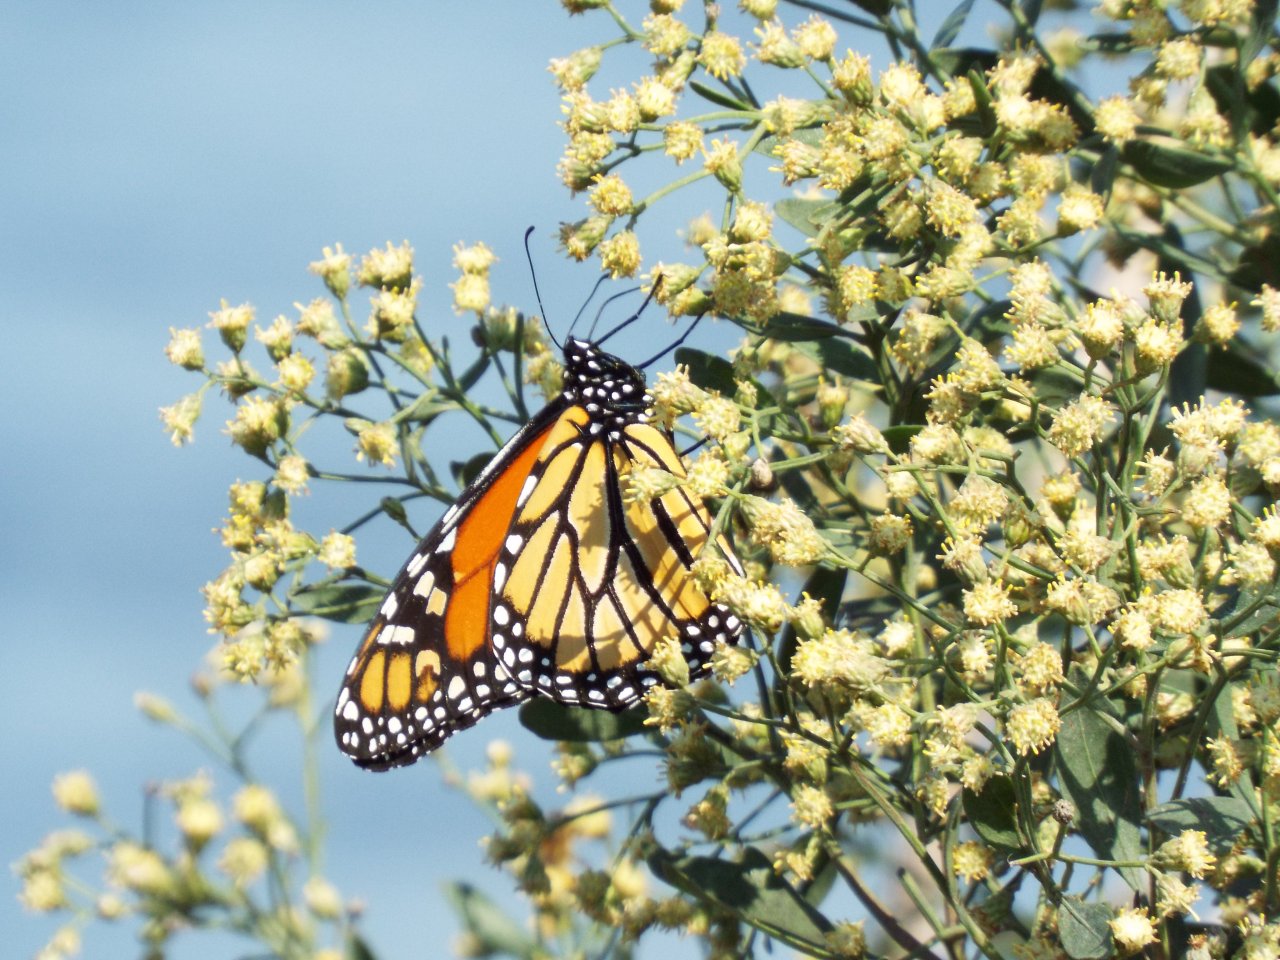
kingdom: Animalia
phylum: Arthropoda
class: Insecta
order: Lepidoptera
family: Nymphalidae
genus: Danaus
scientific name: Danaus plexippus
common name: Monarch
